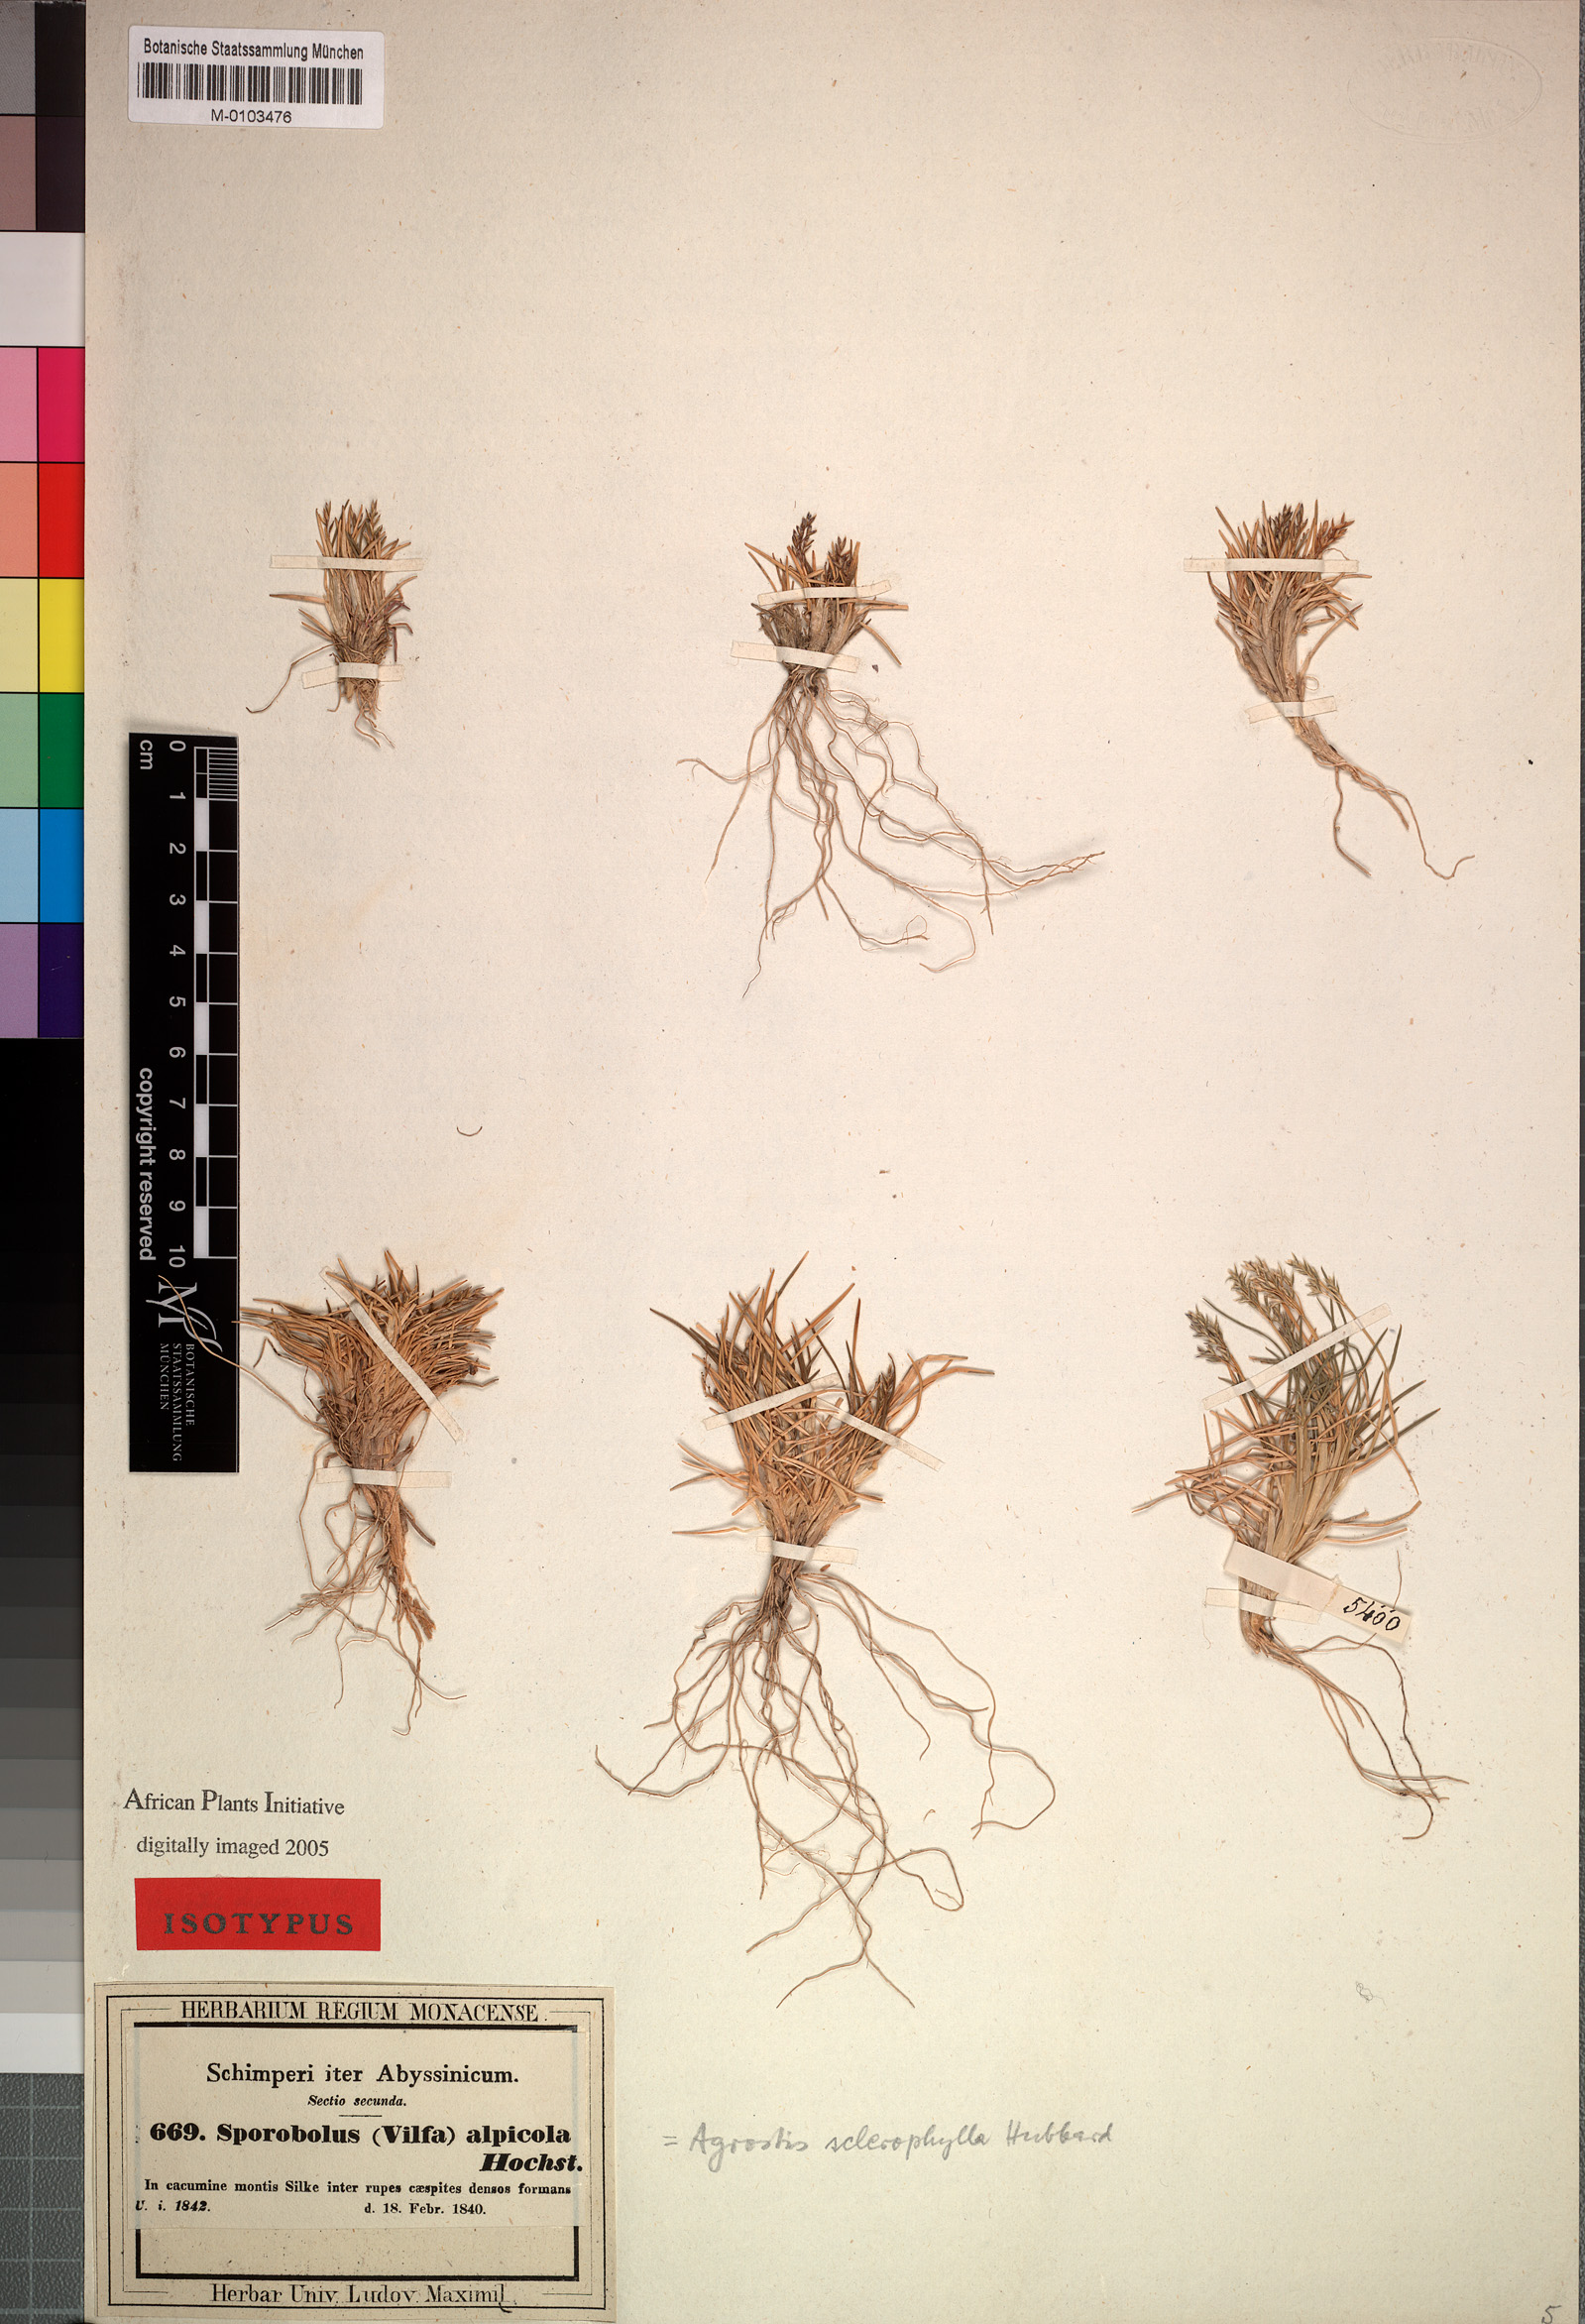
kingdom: Plantae
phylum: Tracheophyta
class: Liliopsida
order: Poales
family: Poaceae
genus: Agrostis
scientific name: Agrostis sclerophylla
